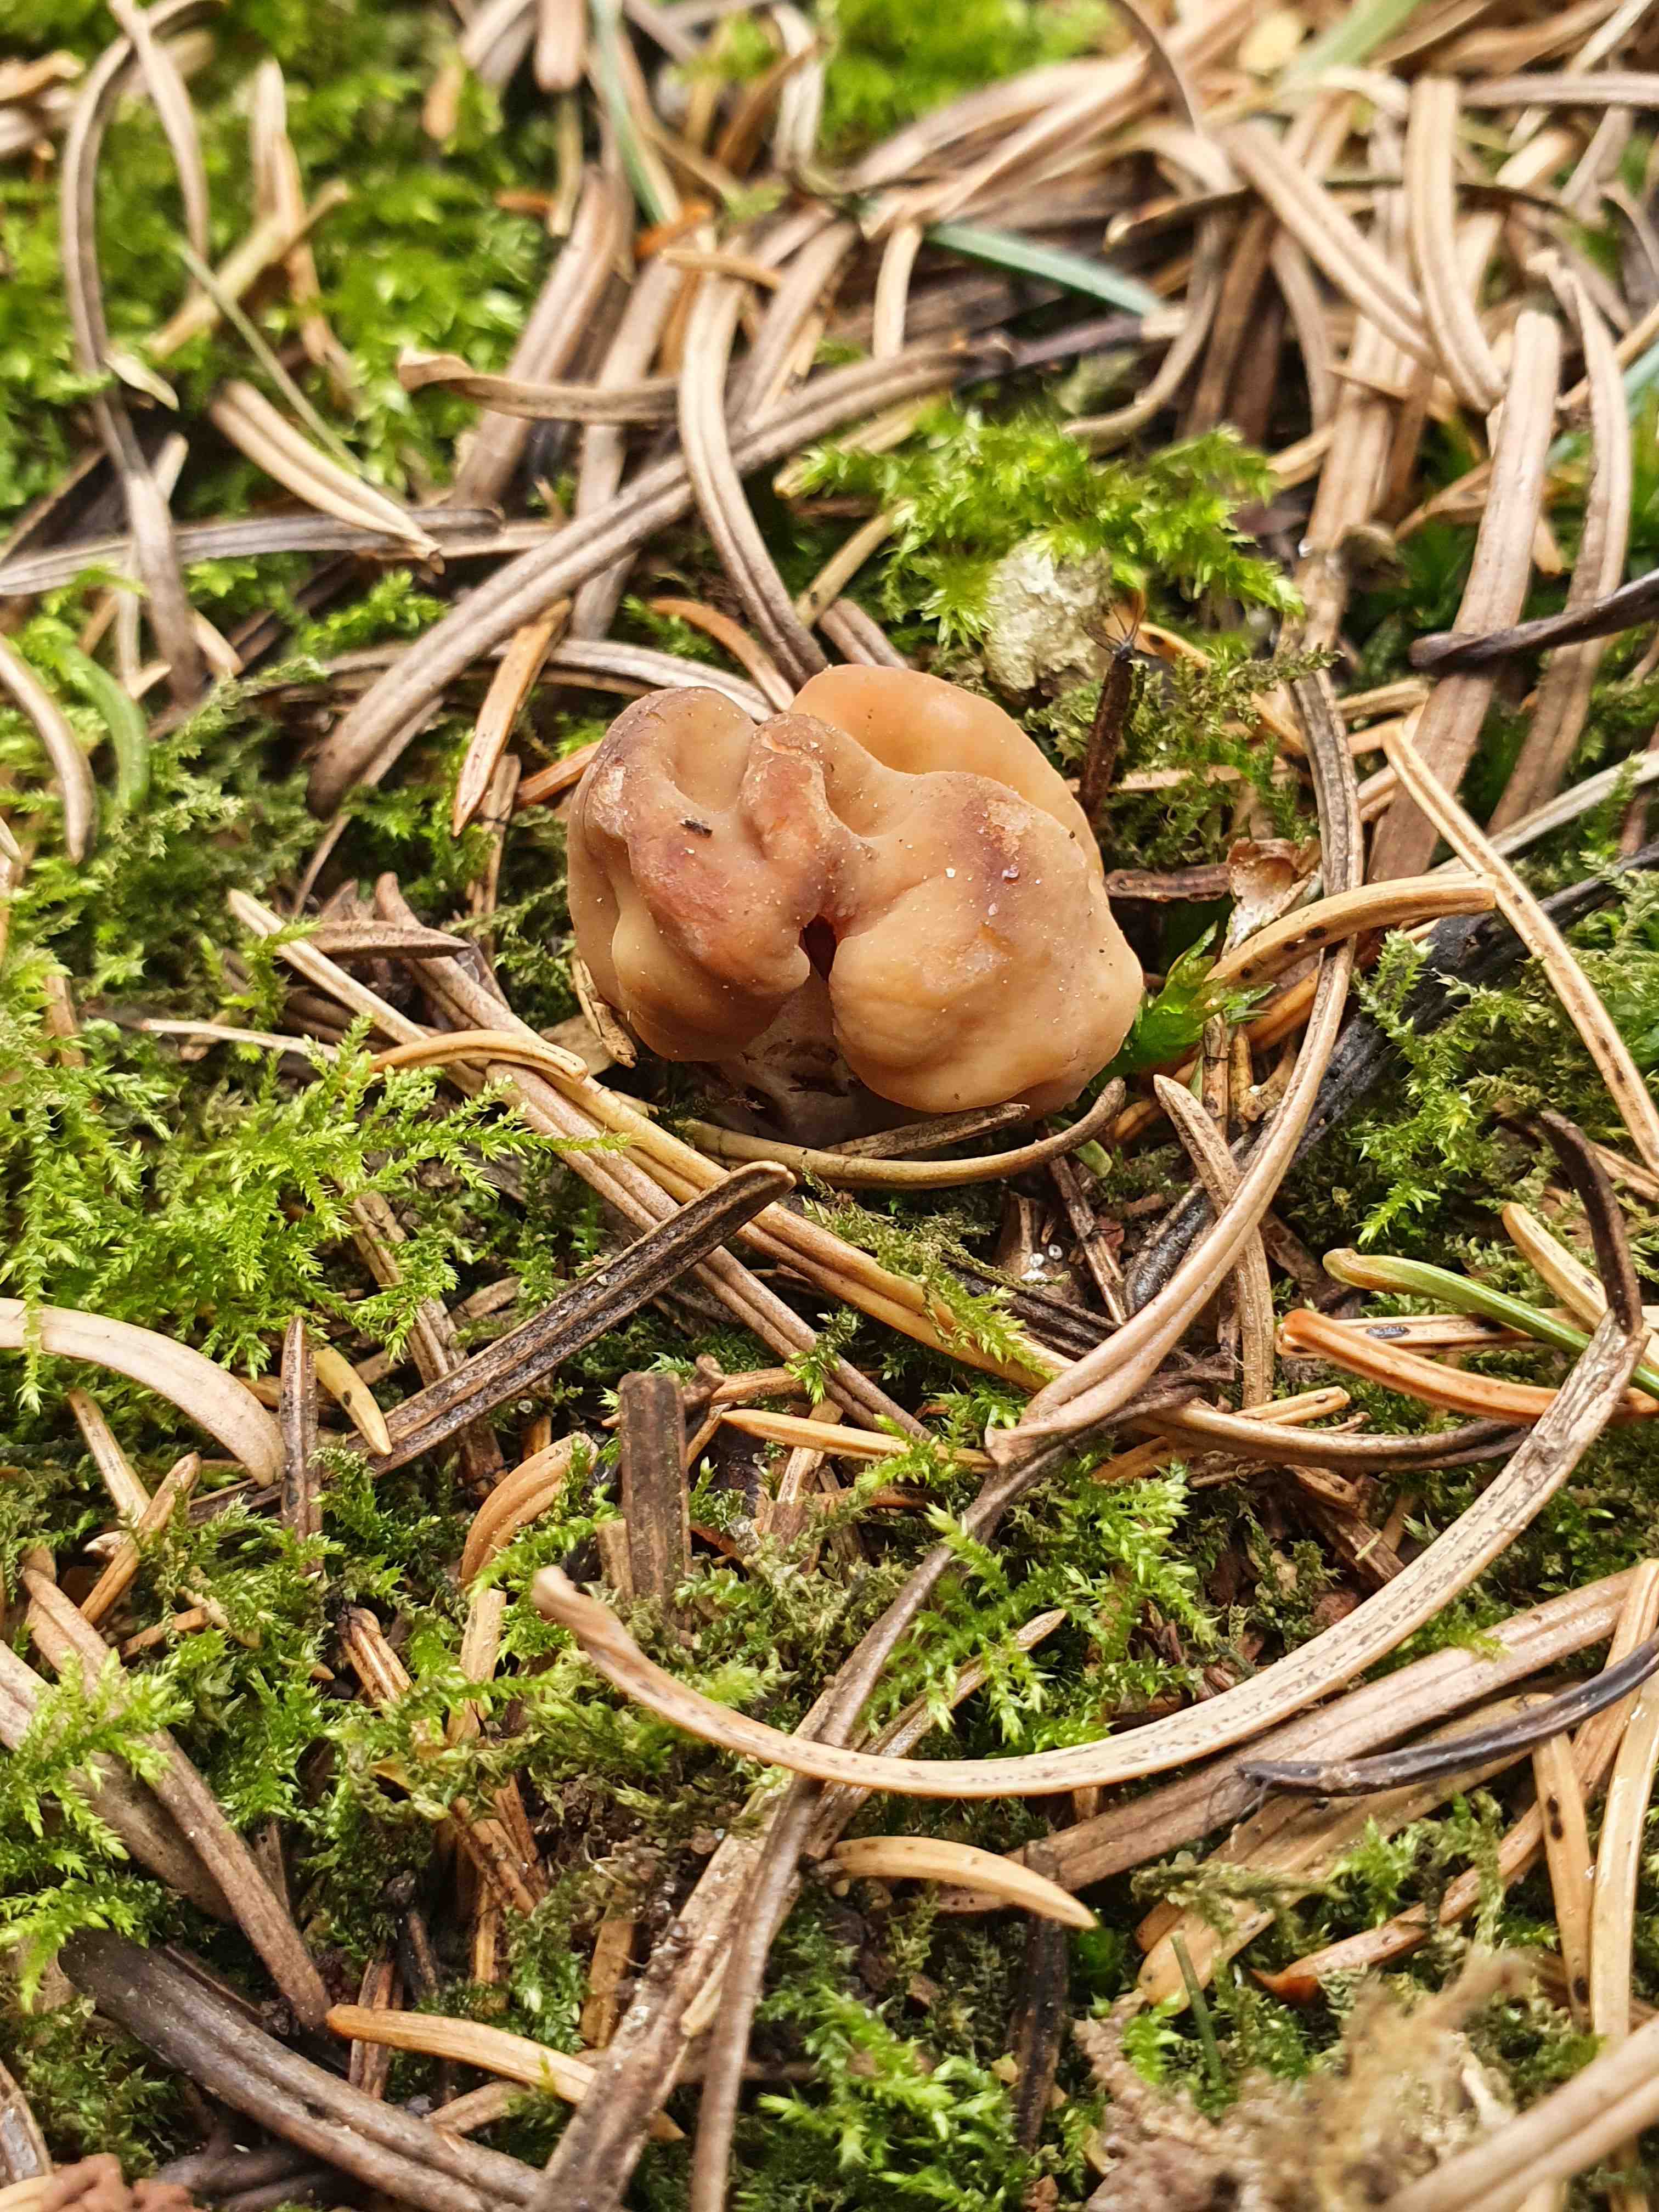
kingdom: Fungi
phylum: Ascomycota
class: Pezizomycetes
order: Pezizales
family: Discinaceae
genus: Gyromitra
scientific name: Gyromitra gigas
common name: kæmpe-stenmorkel
